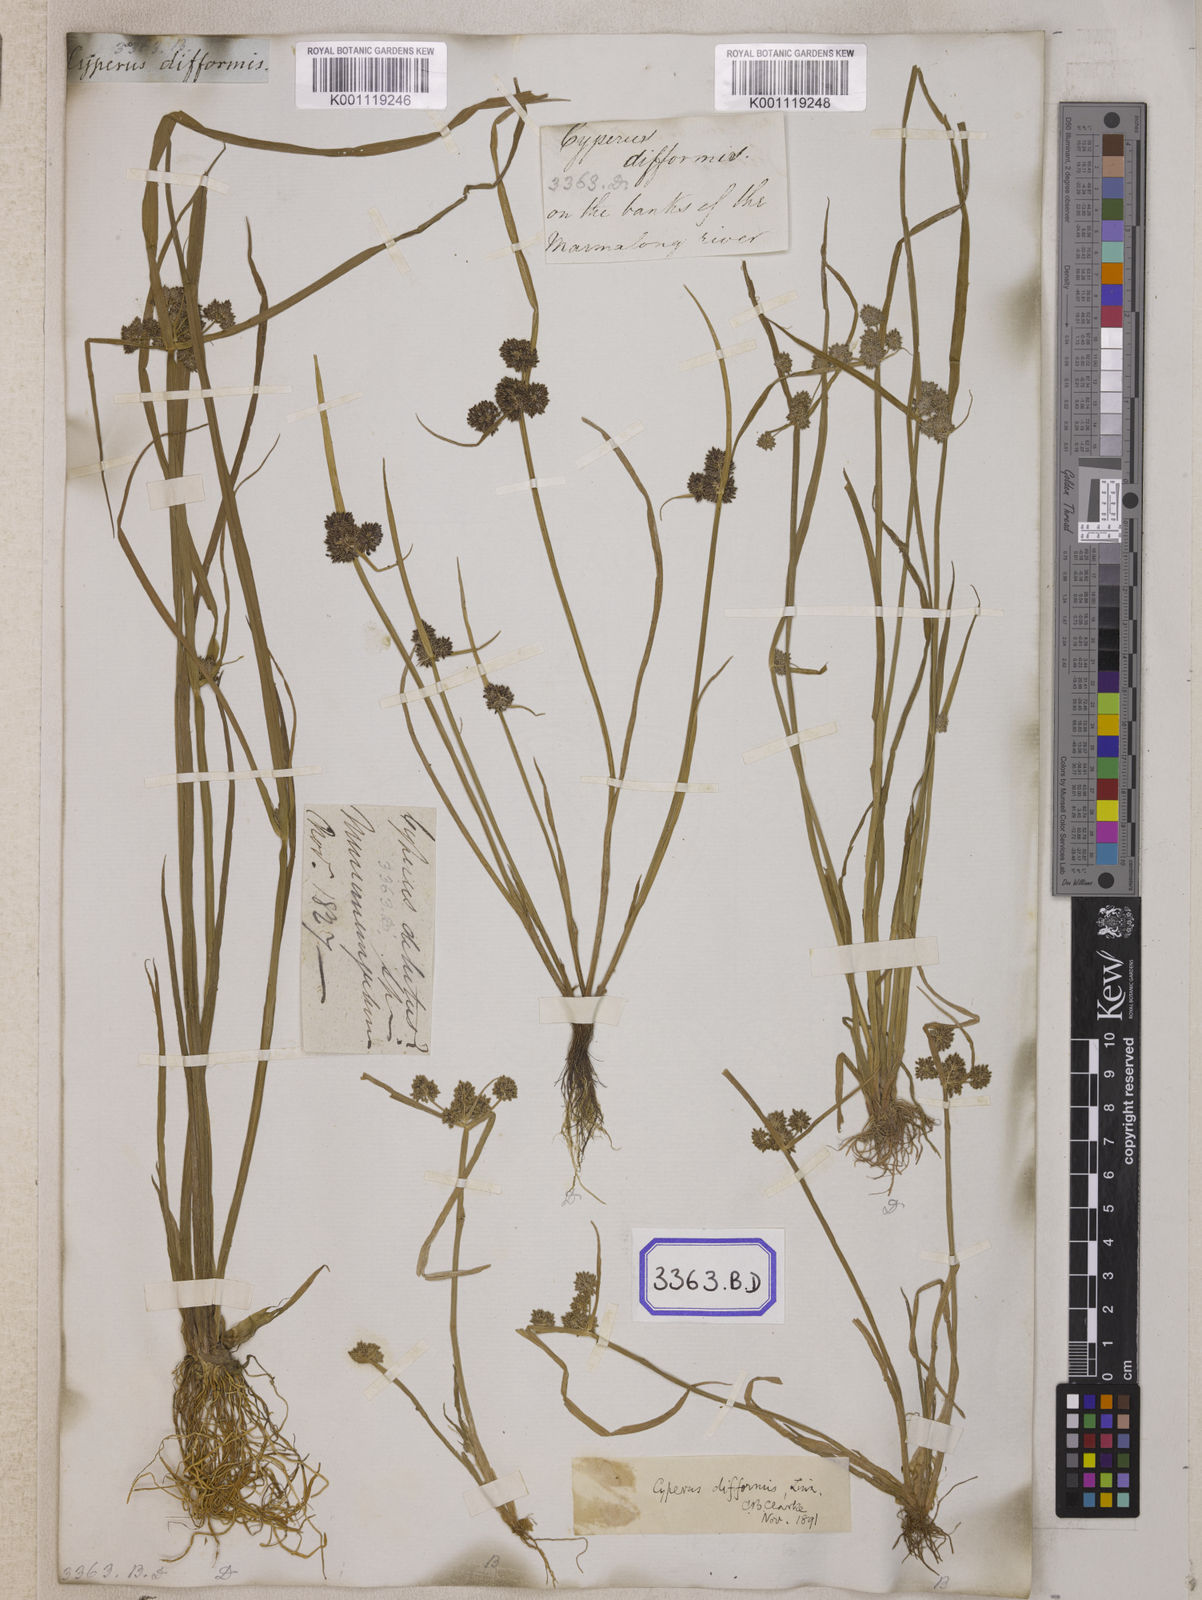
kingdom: Plantae
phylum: Tracheophyta
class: Liliopsida
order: Poales
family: Cyperaceae
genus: Cyperus
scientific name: Cyperus
